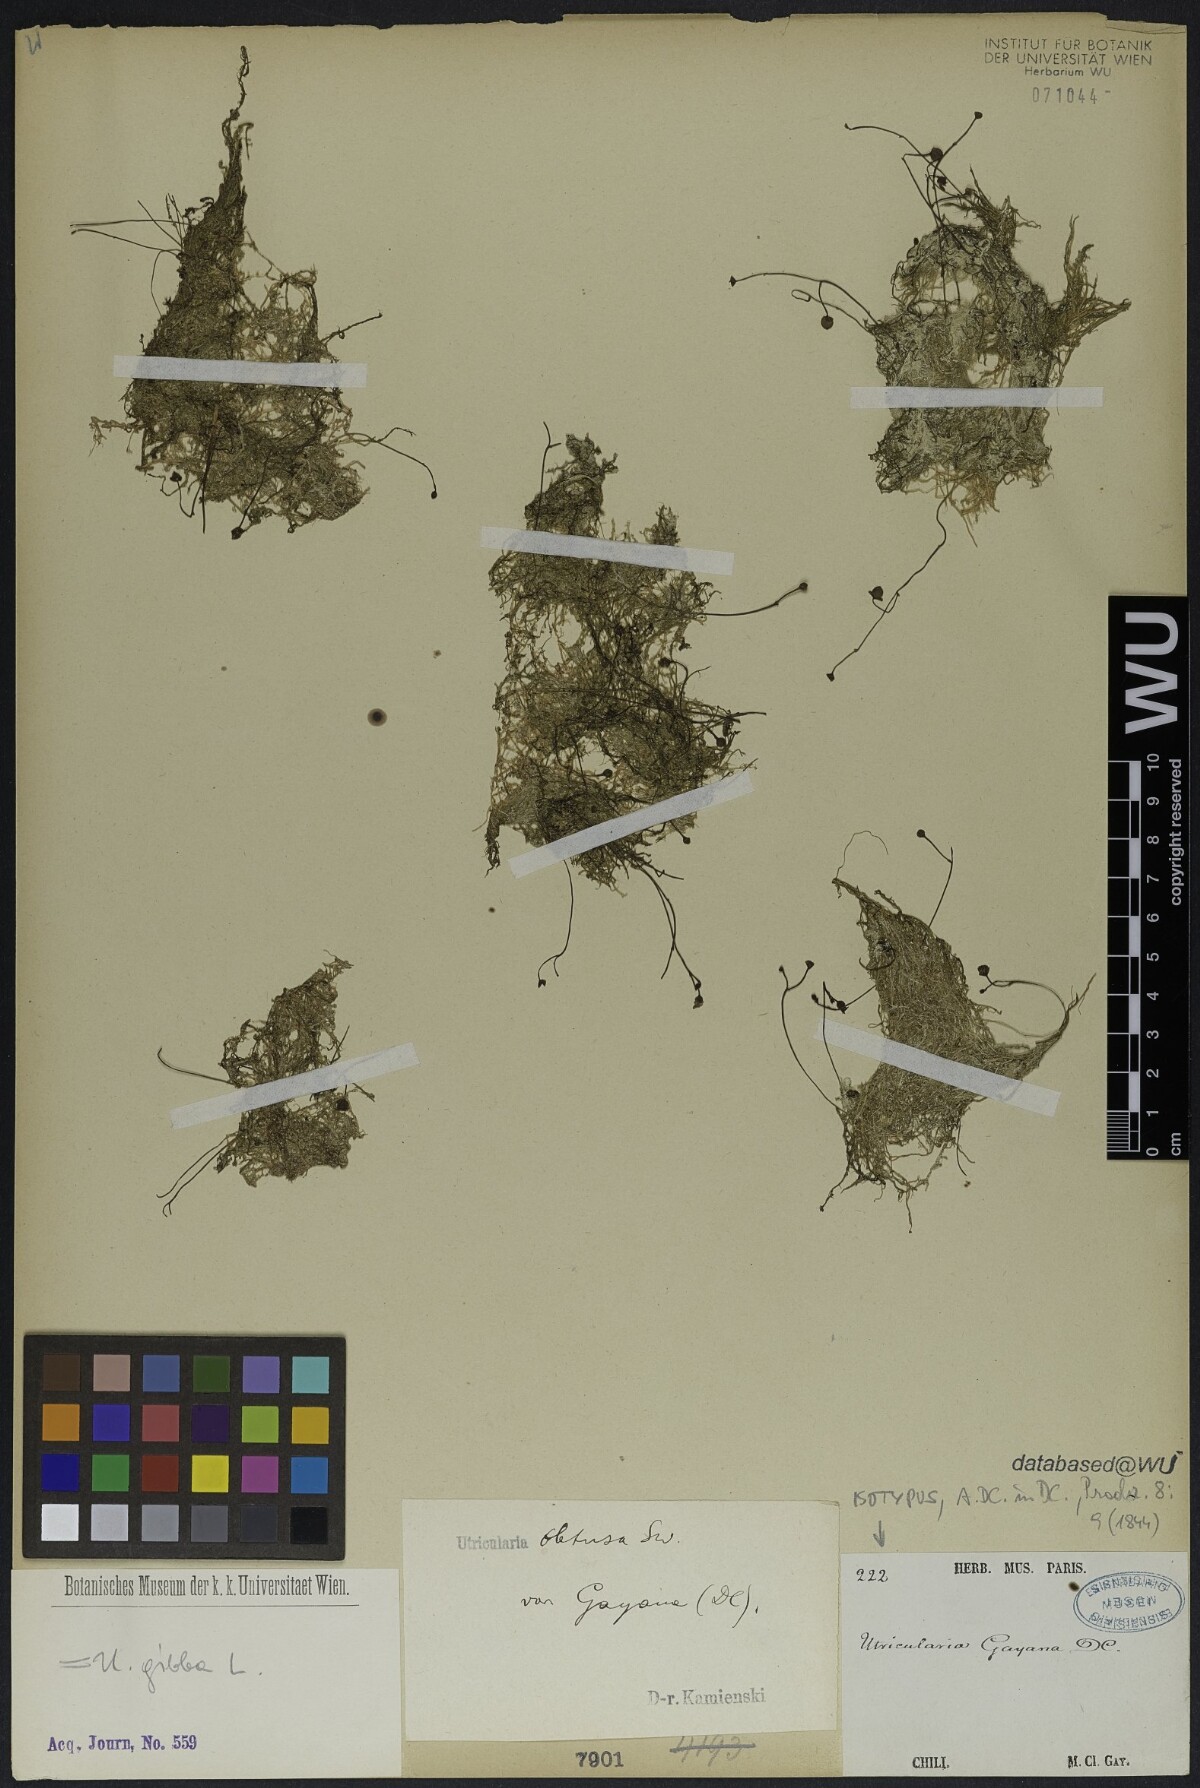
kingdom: Plantae
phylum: Tracheophyta
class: Magnoliopsida
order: Lamiales
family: Lentibulariaceae
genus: Utricularia
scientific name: Utricularia gibba
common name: Humped bladderwort
